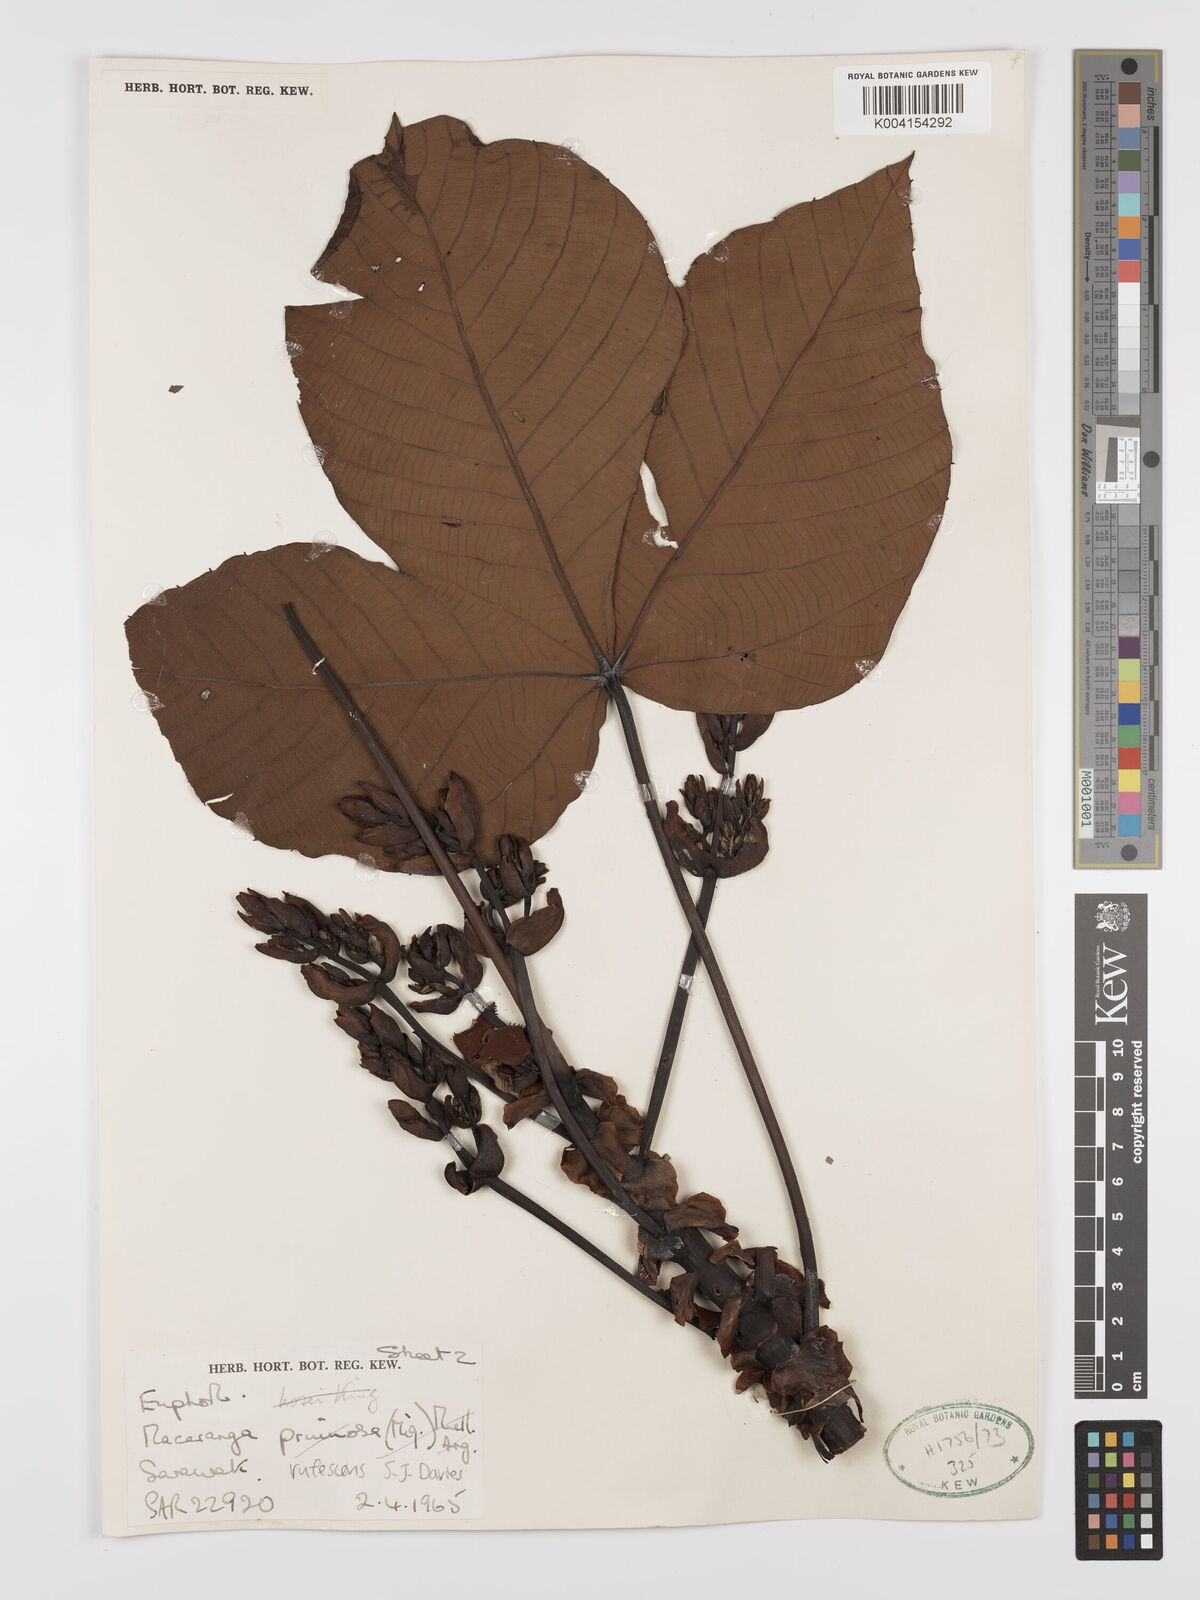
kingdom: Plantae
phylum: Tracheophyta
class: Magnoliopsida
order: Malpighiales
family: Euphorbiaceae
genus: Macaranga
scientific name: Macaranga rufescens
